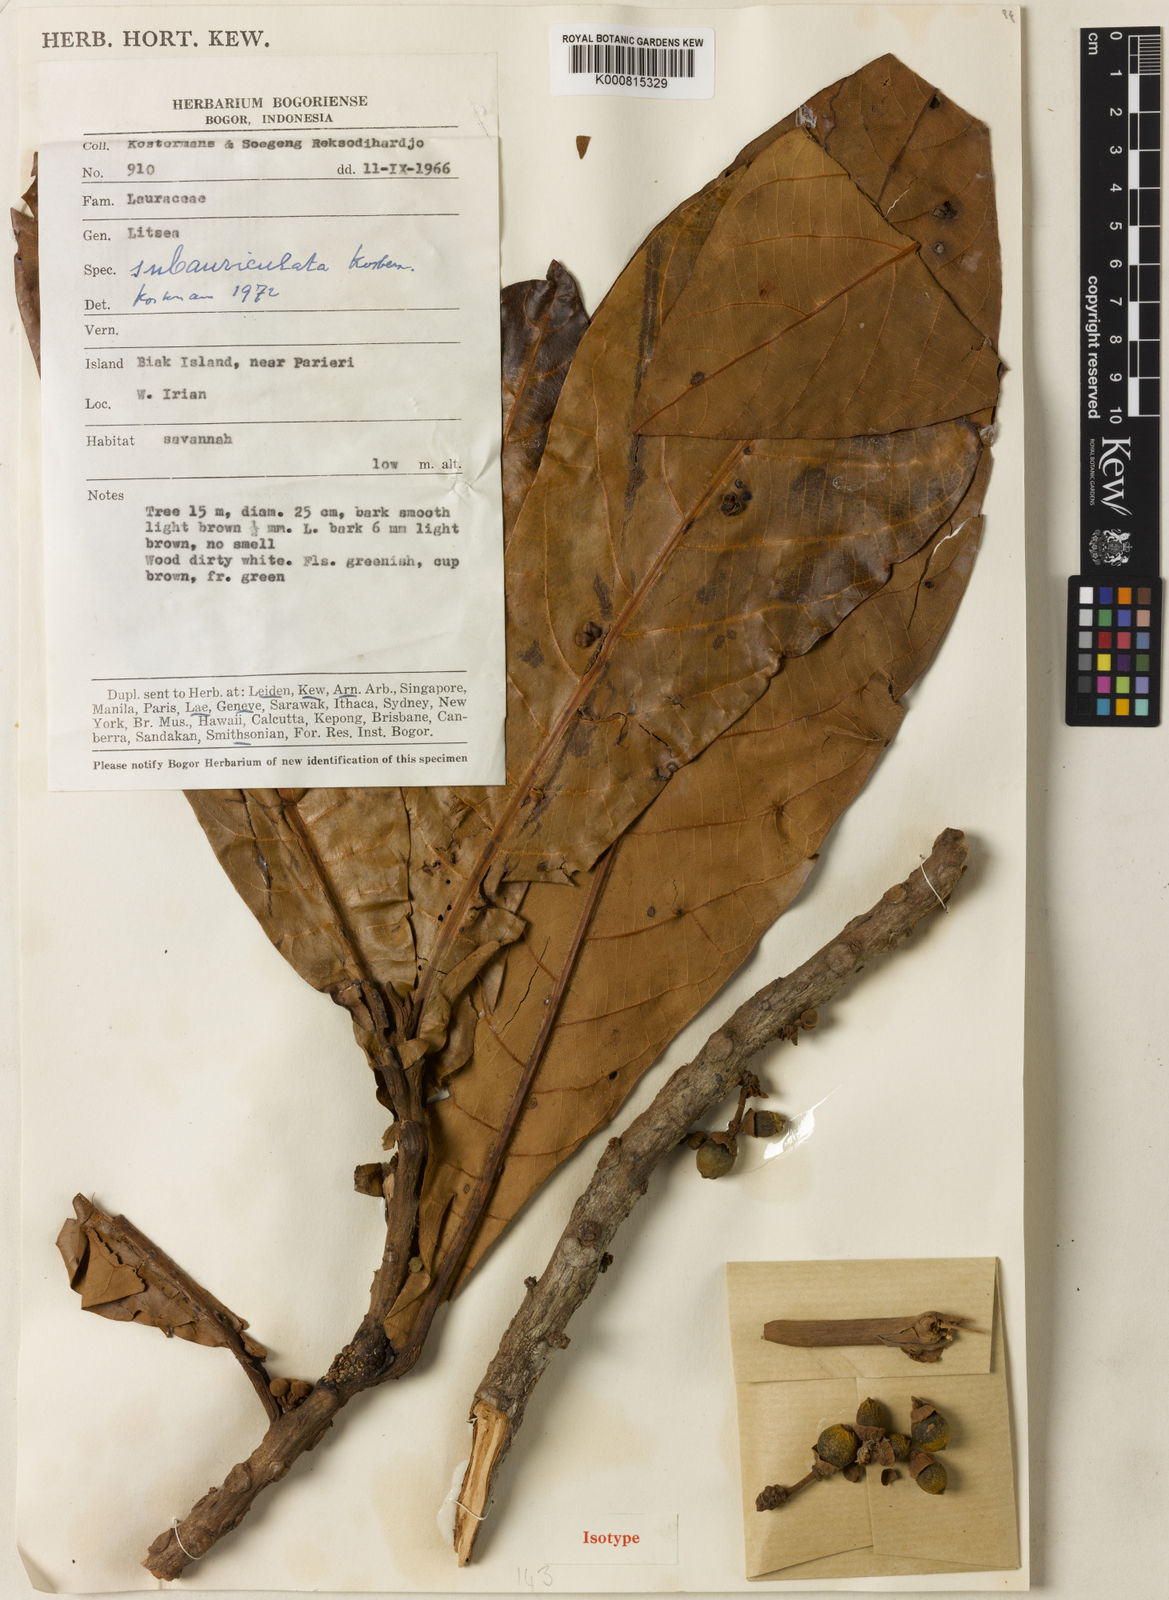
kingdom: Plantae
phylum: Tracheophyta
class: Magnoliopsida
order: Laurales
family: Lauraceae
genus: Litsea
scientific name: Litsea subauriculata
